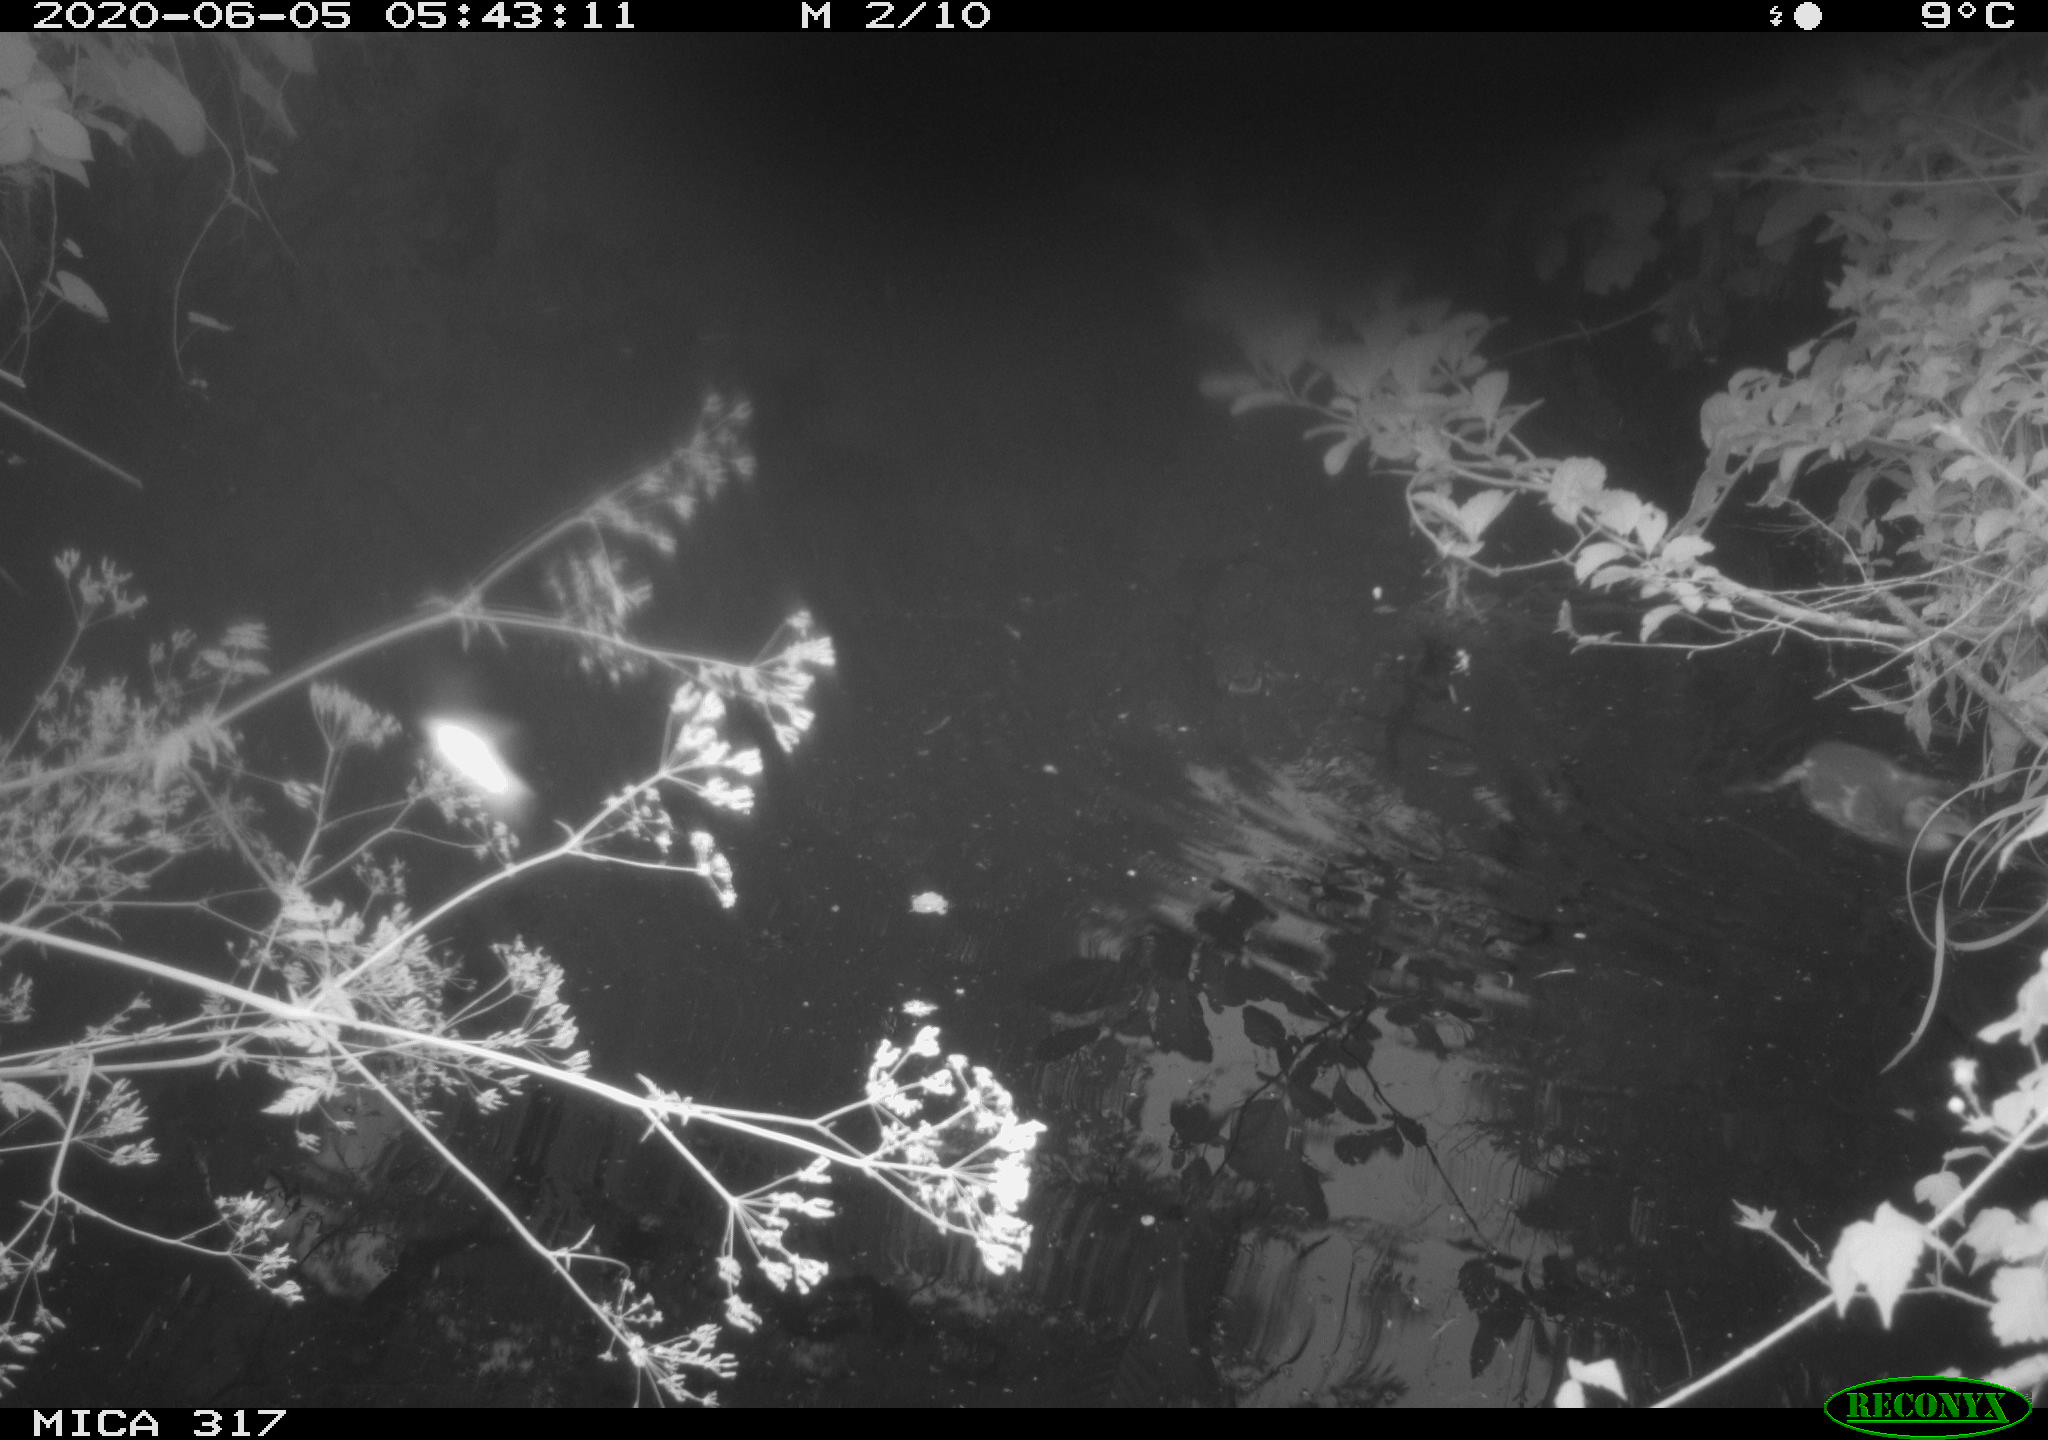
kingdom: Animalia
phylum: Chordata
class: Aves
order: Anseriformes
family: Anatidae
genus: Anas
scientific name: Anas platyrhynchos
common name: Mallard
